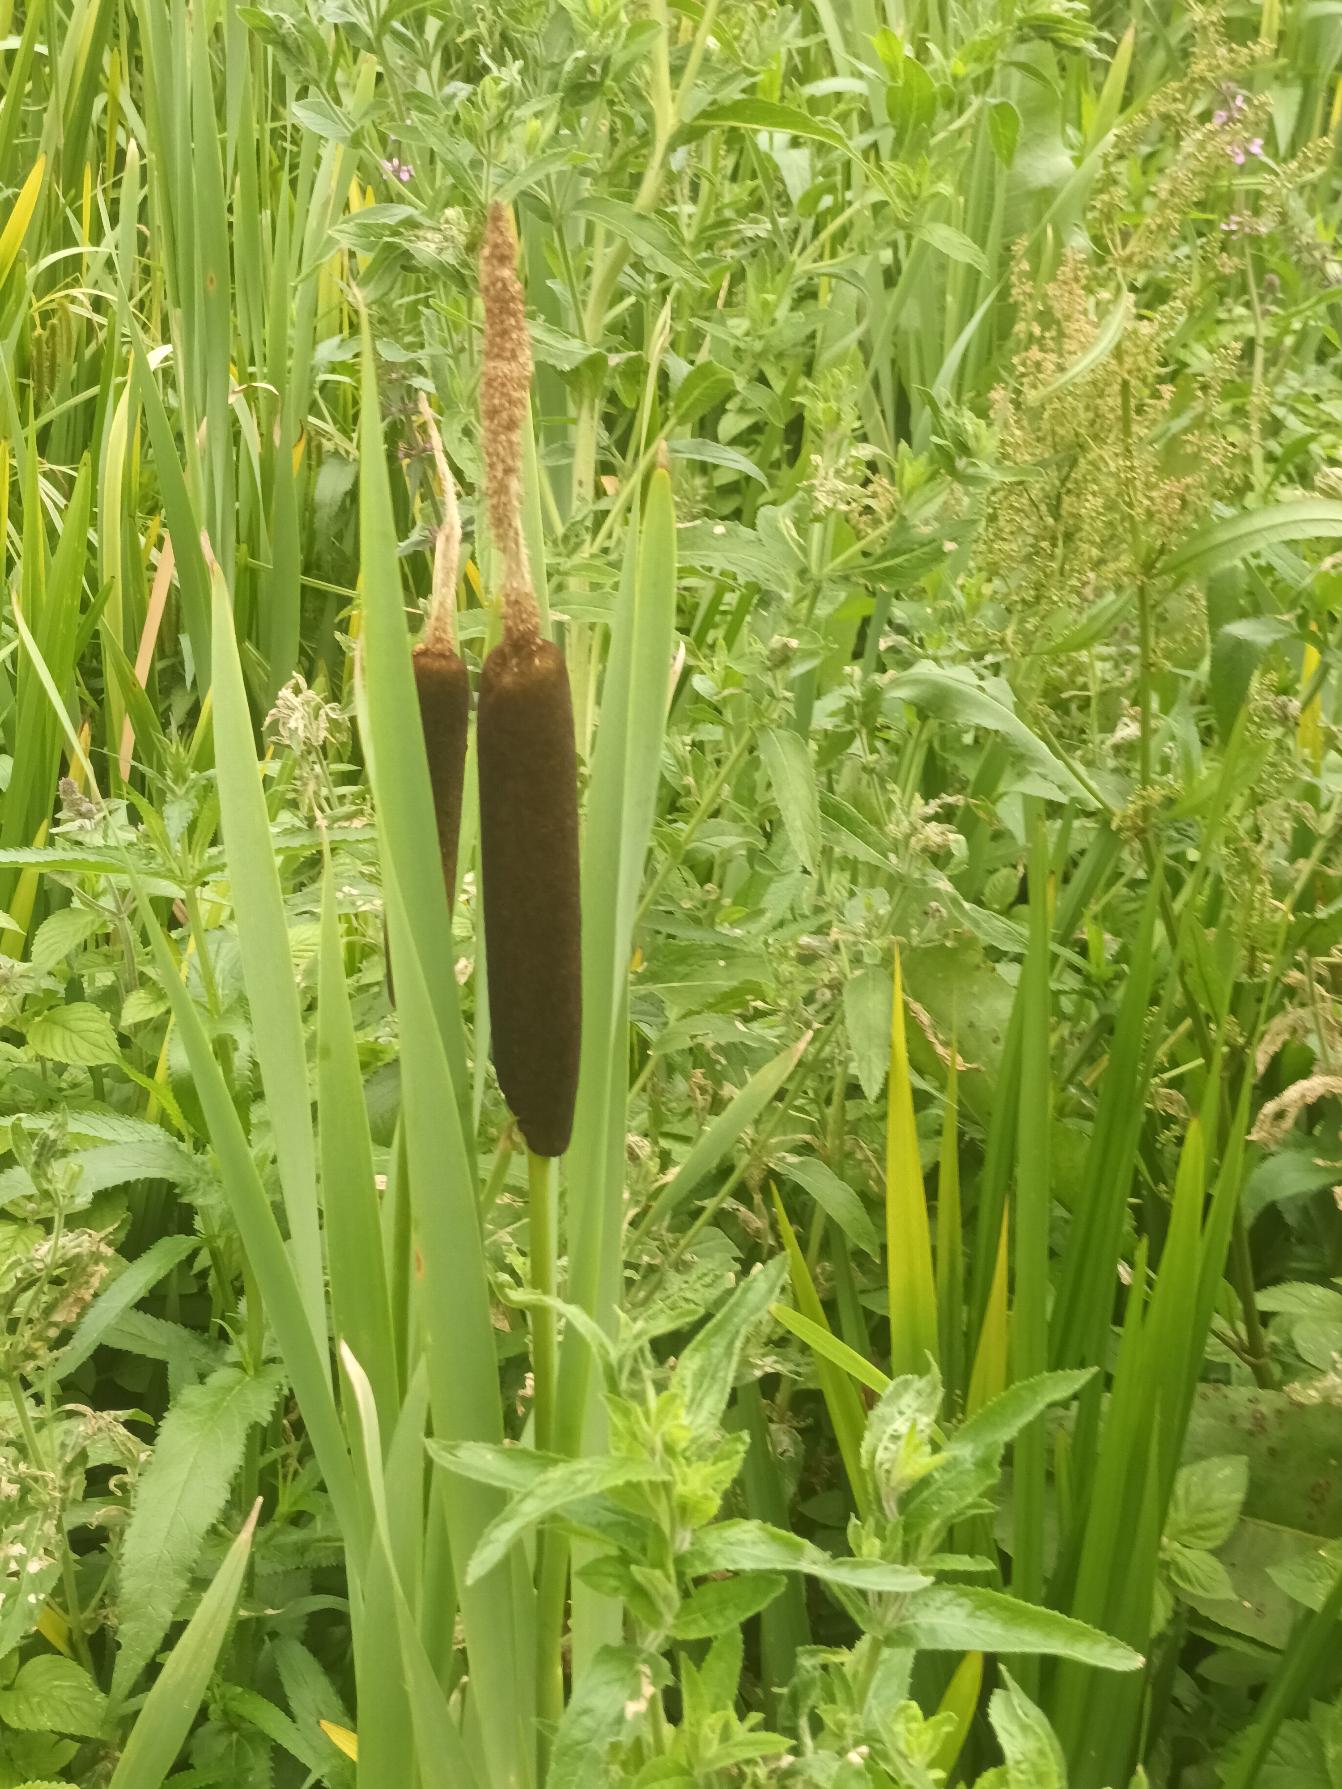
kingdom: Plantae
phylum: Tracheophyta
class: Liliopsida
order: Poales
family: Typhaceae
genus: Typha
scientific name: Typha latifolia
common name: Bredbladet dunhammer
